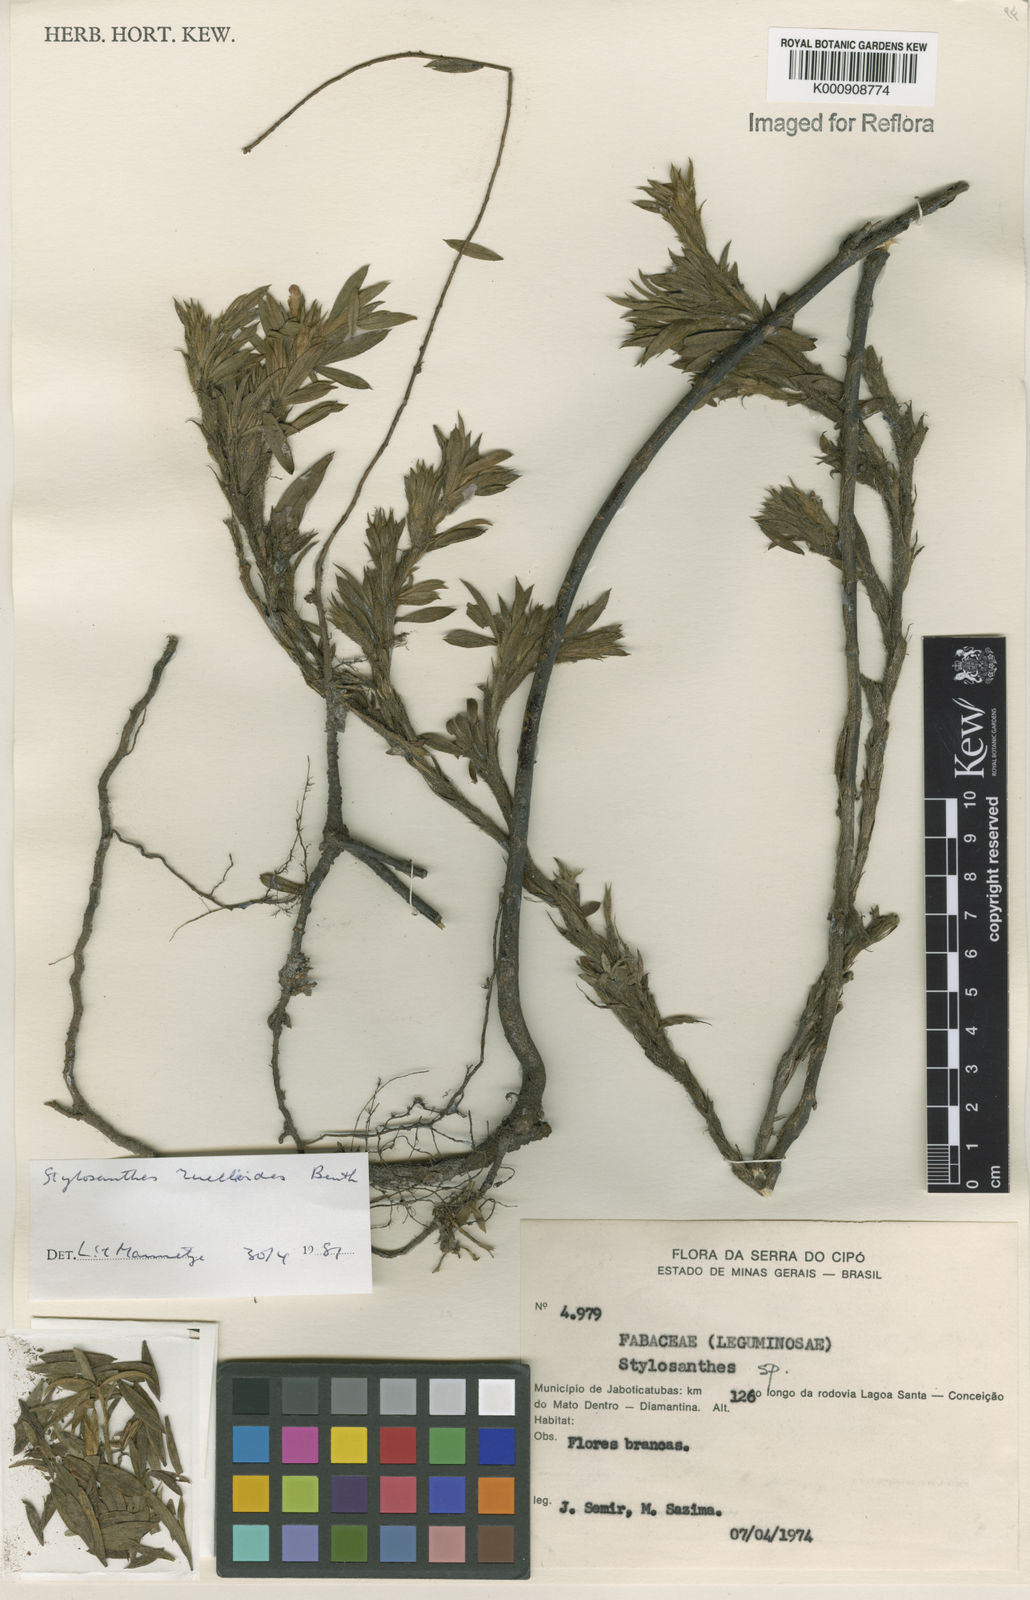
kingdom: Plantae
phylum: Tracheophyta
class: Magnoliopsida
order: Fabales
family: Fabaceae
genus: Stylosanthes
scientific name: Stylosanthes ruellioides
